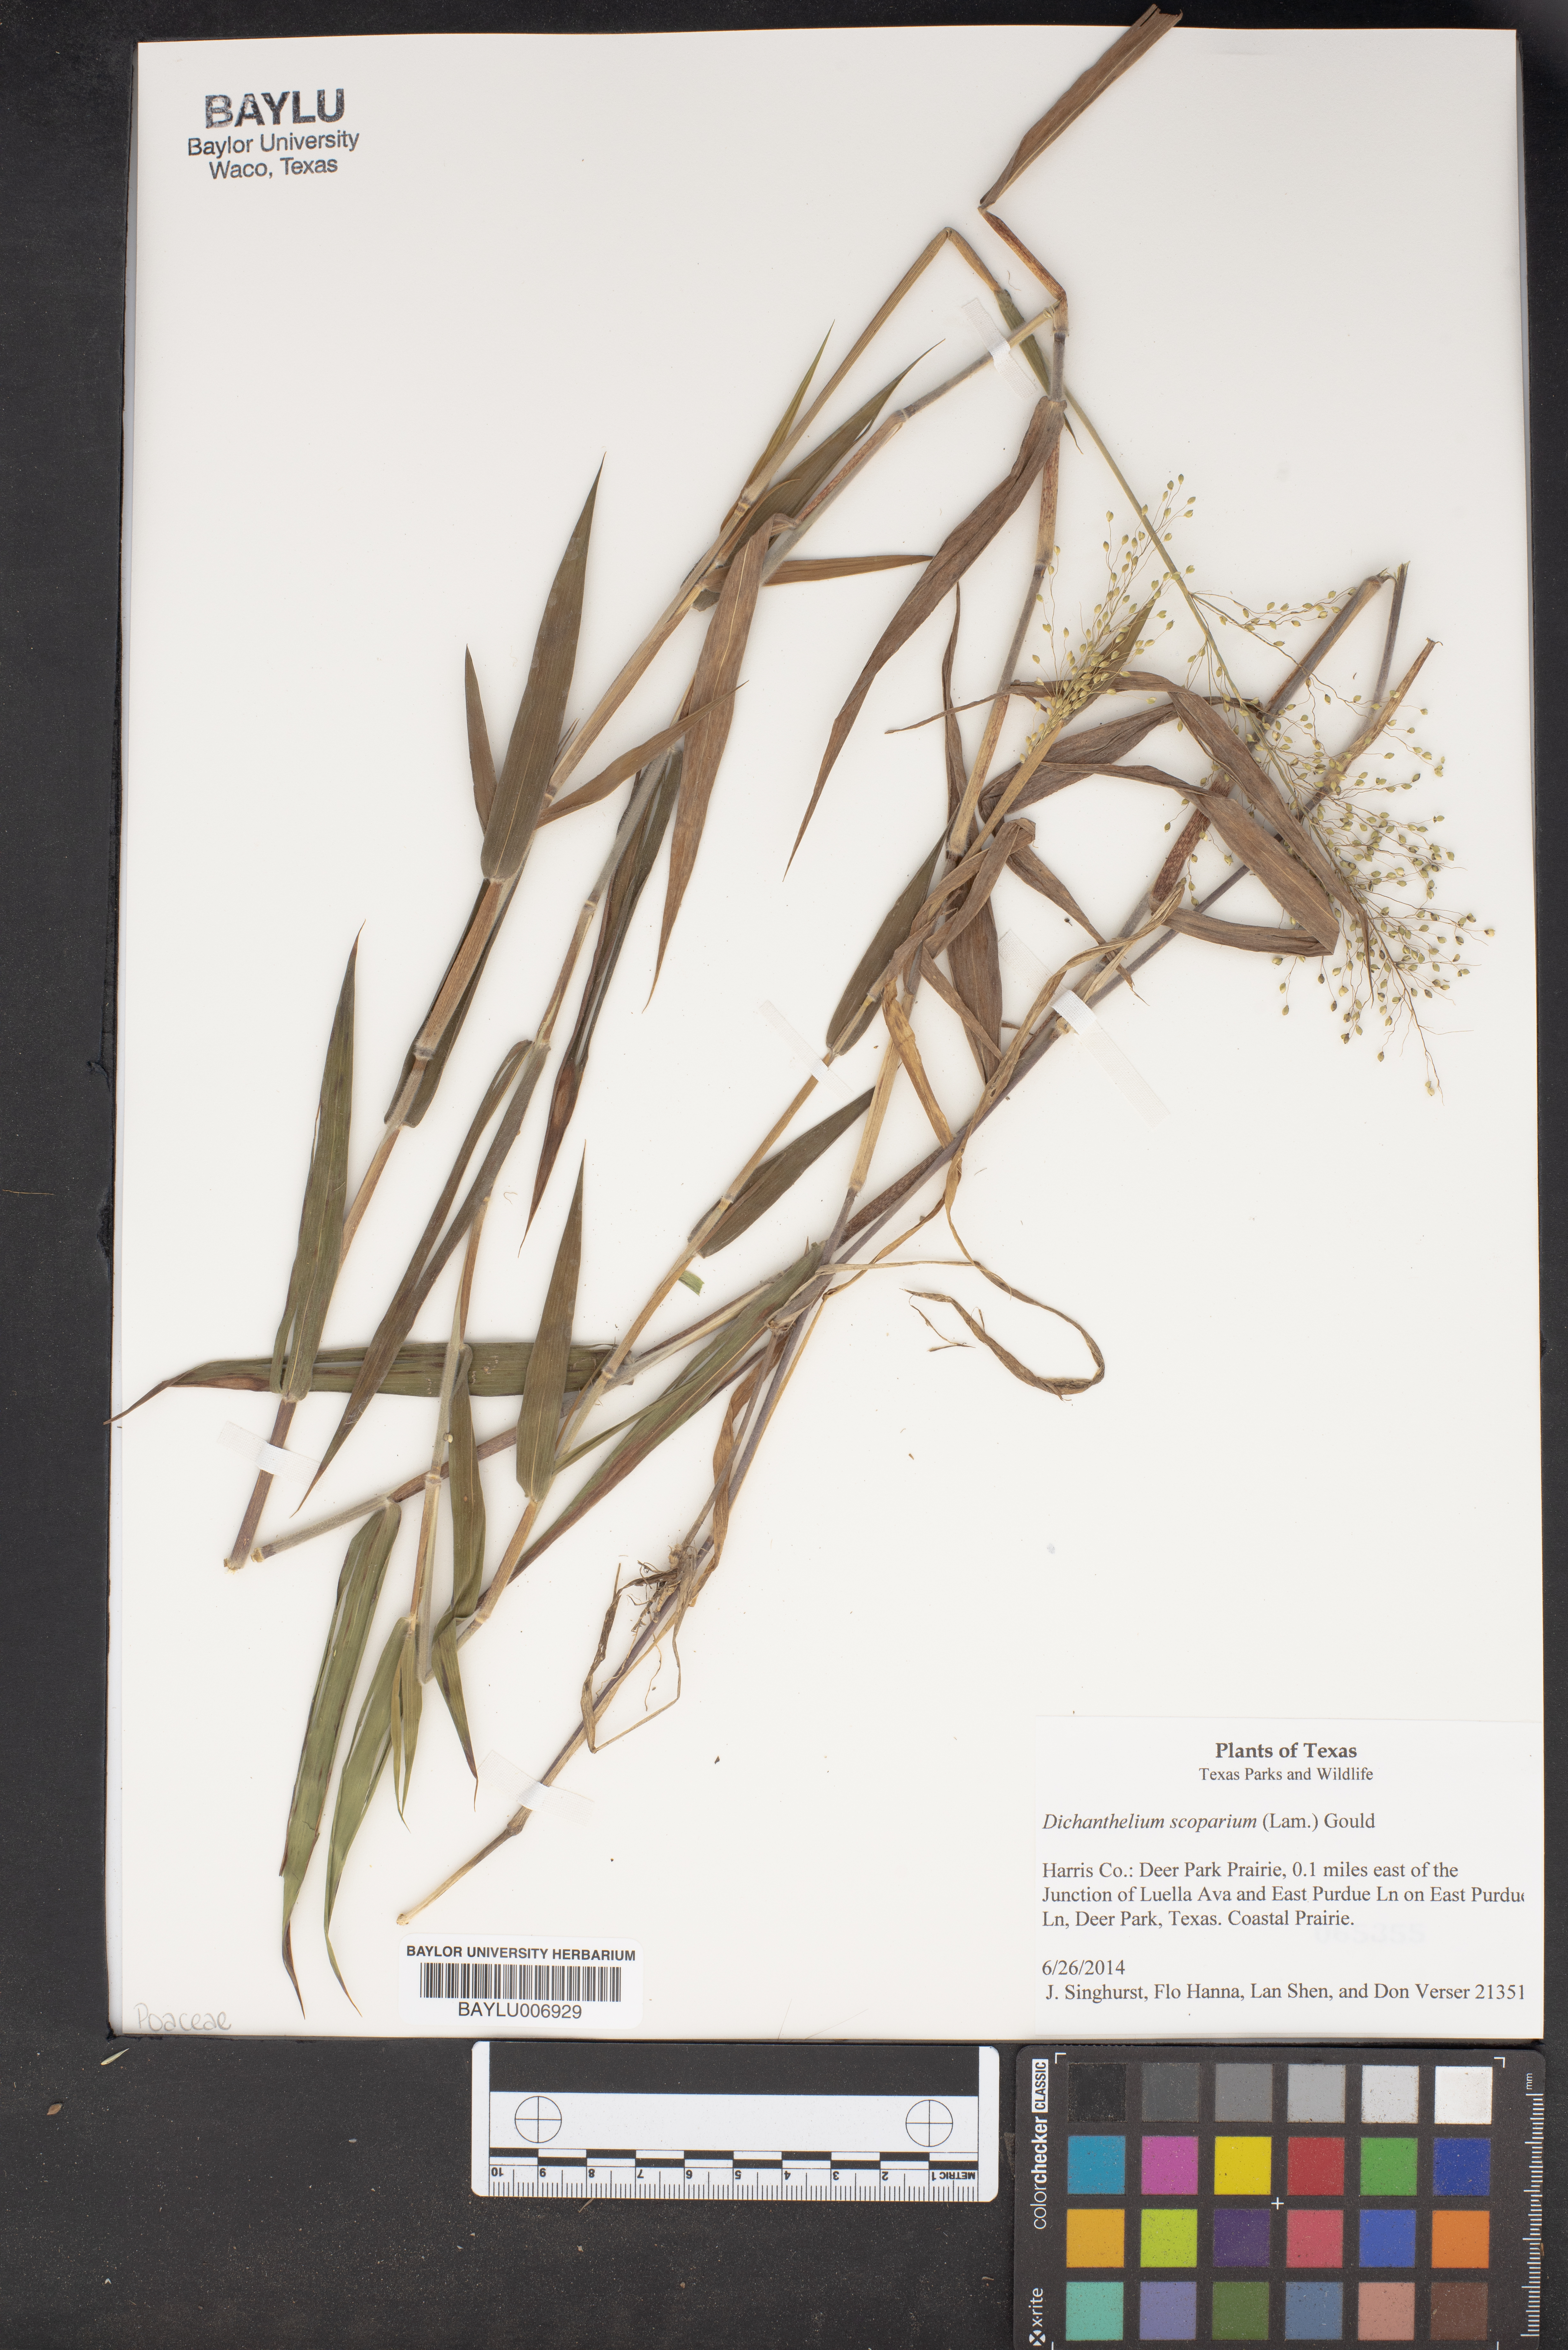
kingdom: Plantae
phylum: Tracheophyta
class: Liliopsida
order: Poales
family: Poaceae
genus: Dichanthelium
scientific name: Dichanthelium scoparium
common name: Velvety panic grass
